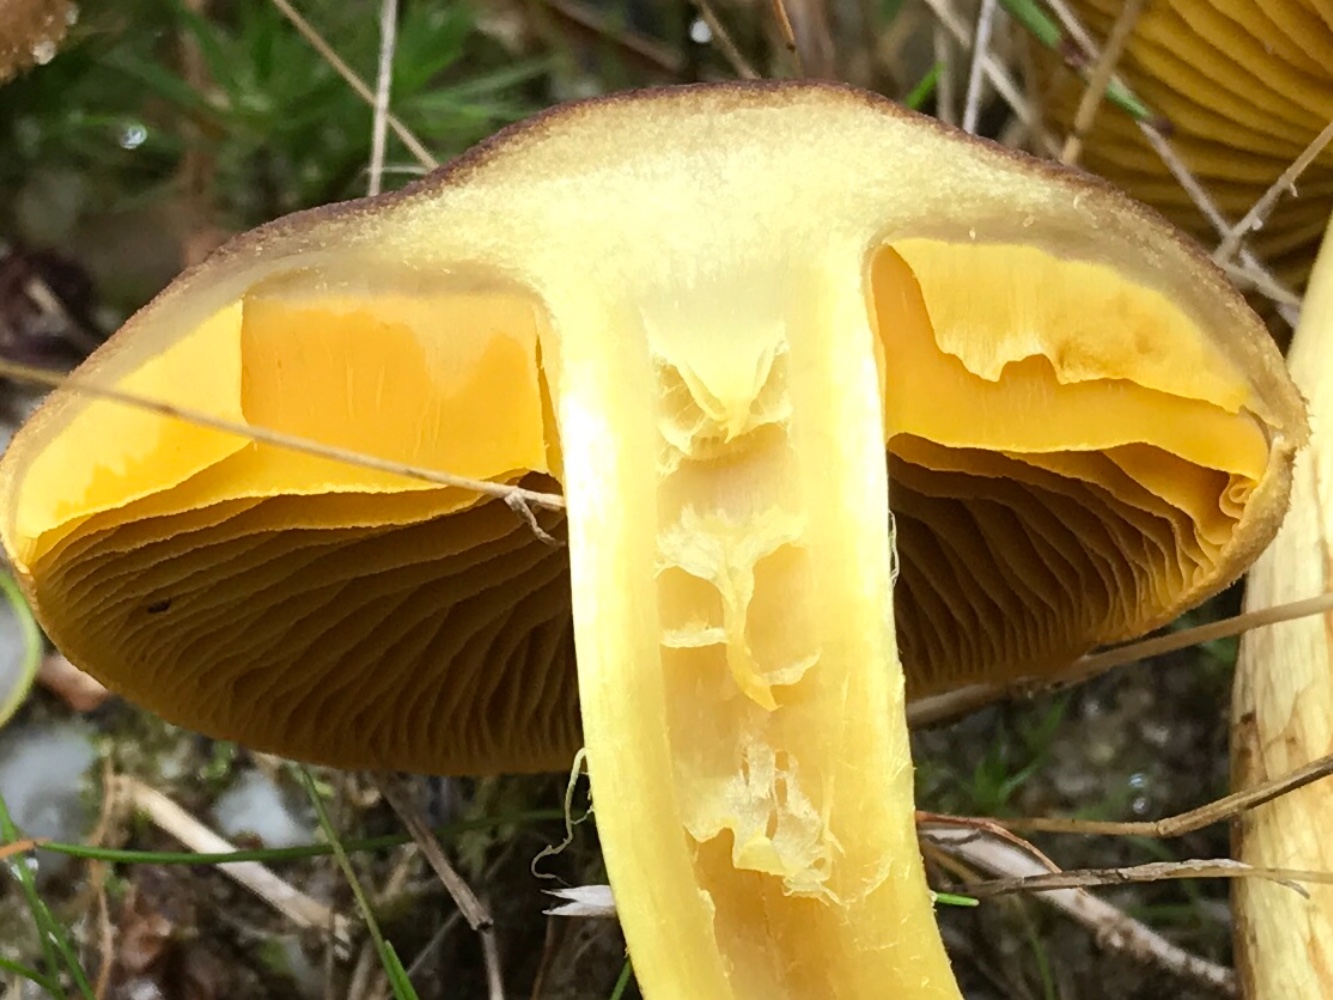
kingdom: Fungi
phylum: Basidiomycota
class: Agaricomycetes
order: Agaricales
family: Cortinariaceae
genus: Cortinarius
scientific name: Cortinarius
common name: gulbladet slørhat
